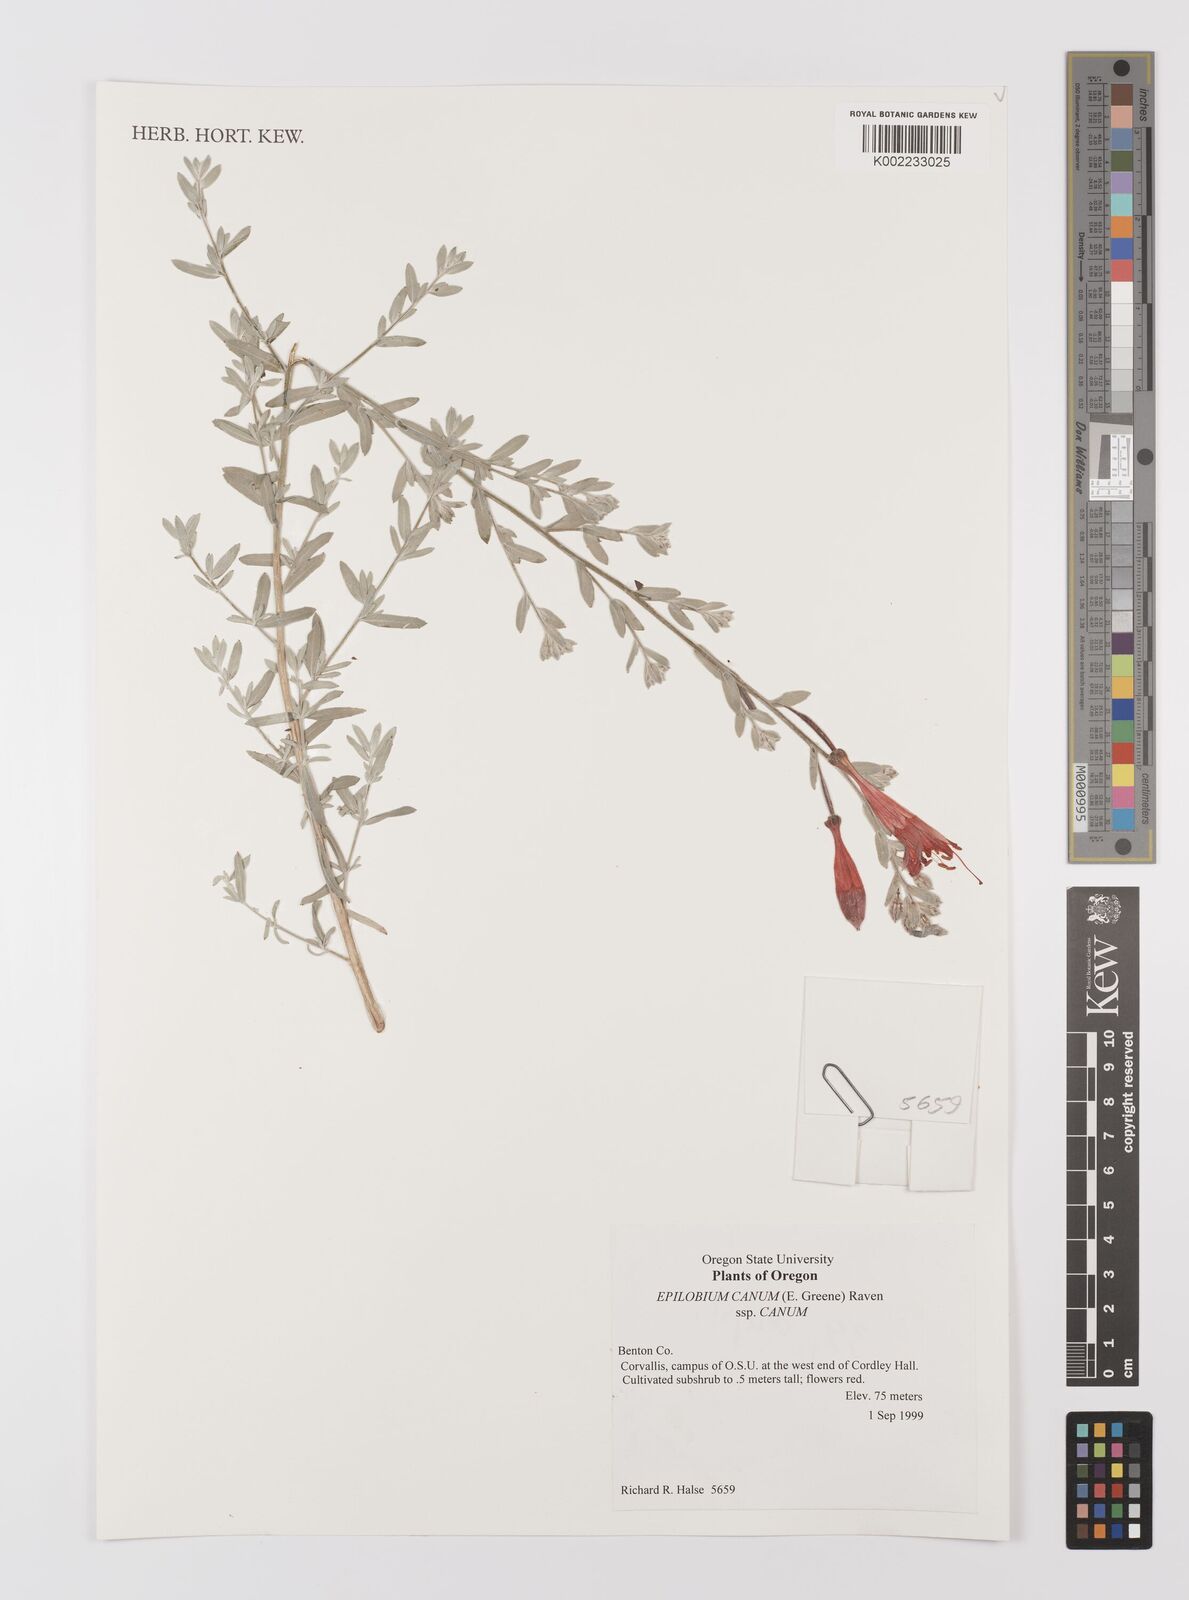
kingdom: Plantae
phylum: Tracheophyta
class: Magnoliopsida
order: Myrtales
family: Onagraceae
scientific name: Onagraceae
